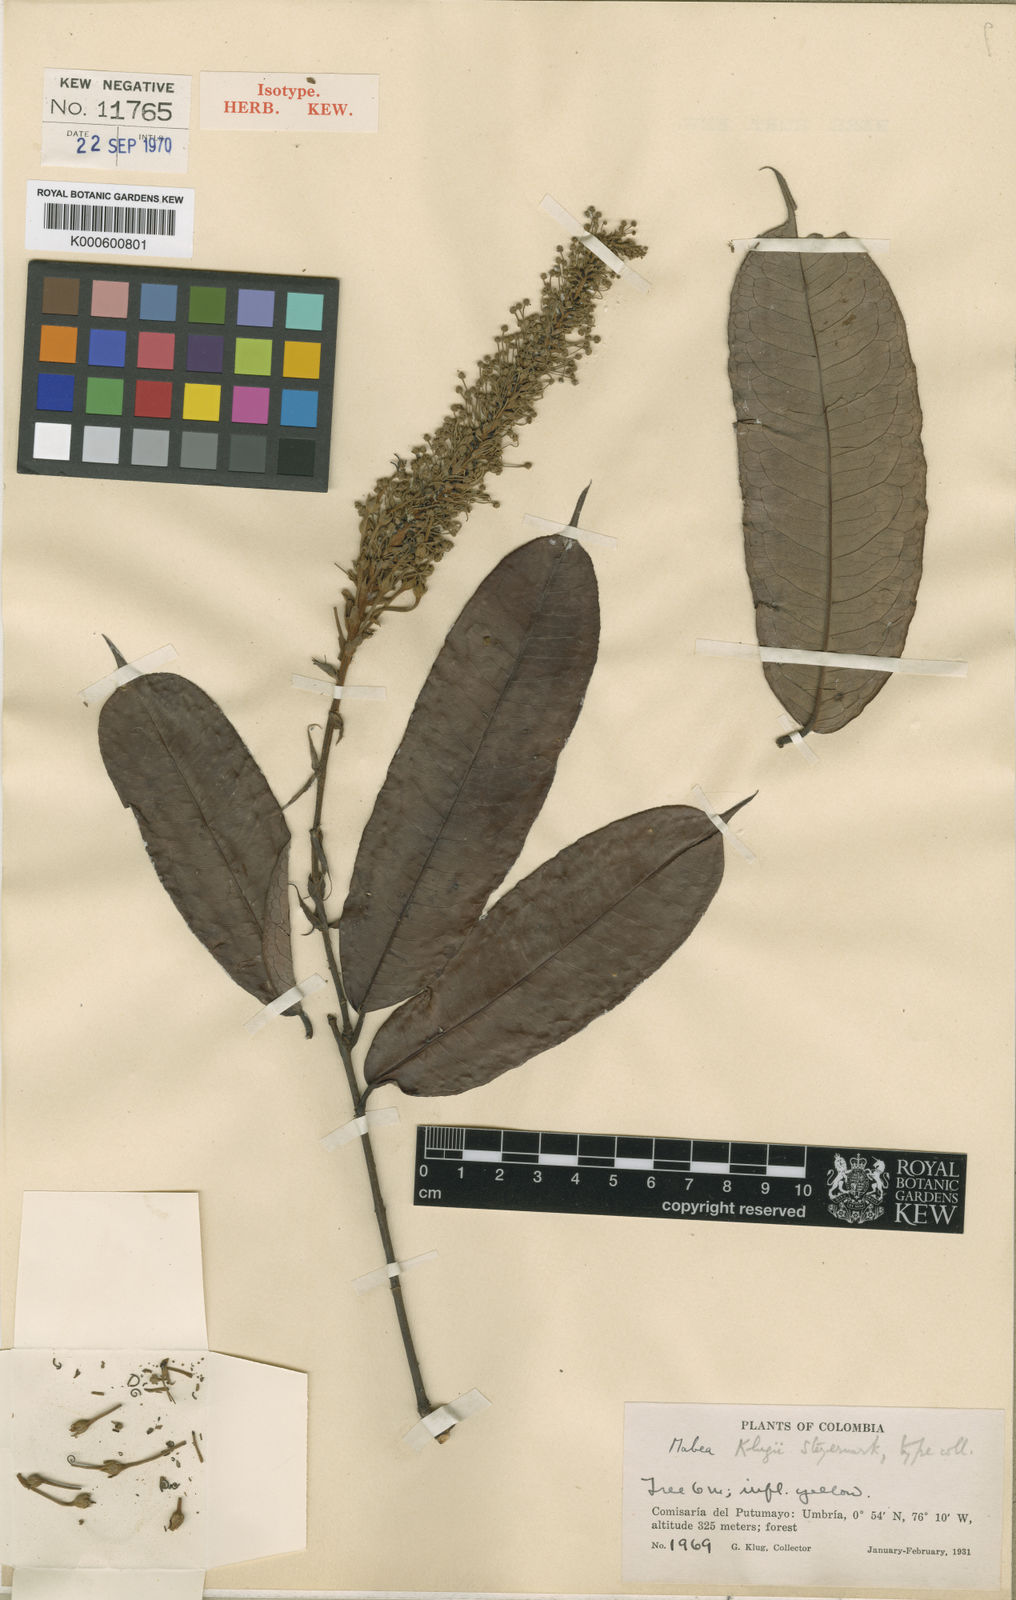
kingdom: Plantae
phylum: Tracheophyta
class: Magnoliopsida
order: Malpighiales
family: Euphorbiaceae
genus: Mabea
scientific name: Mabea klugii
